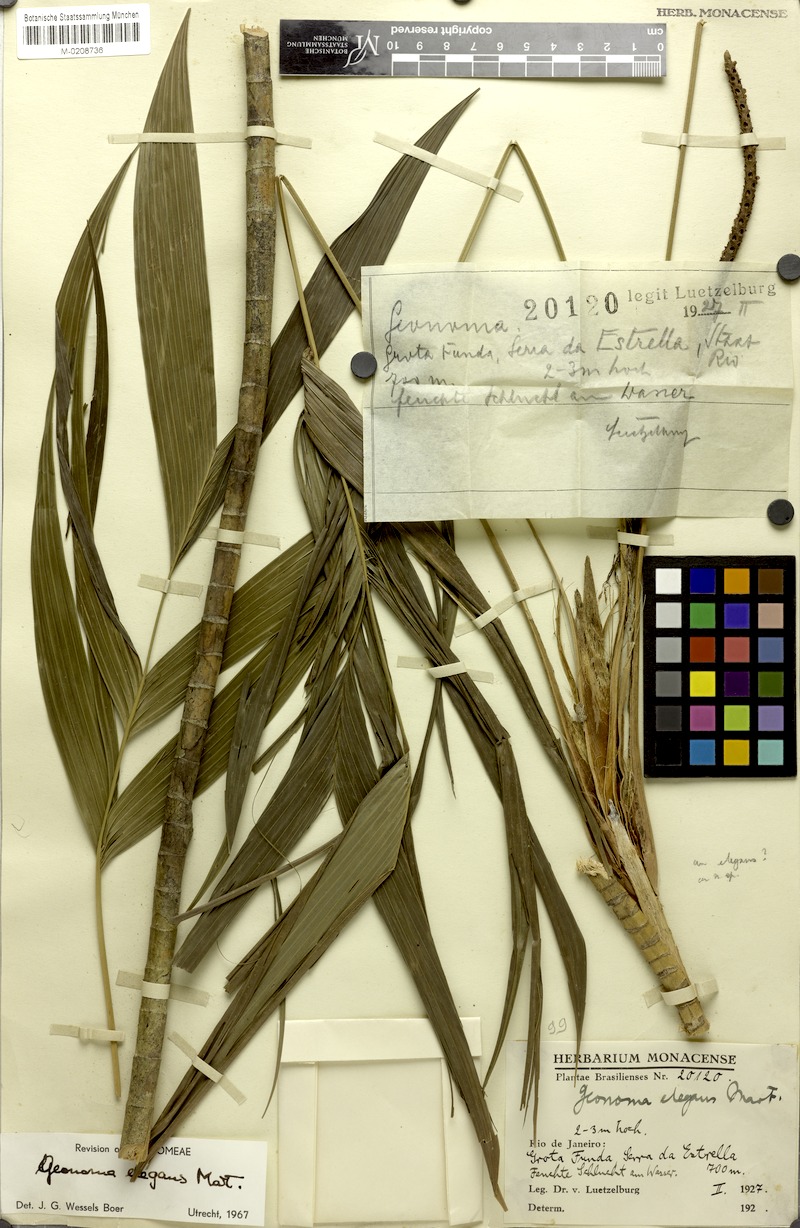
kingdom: Plantae
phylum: Tracheophyta
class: Liliopsida
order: Arecales
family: Arecaceae
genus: Geonoma
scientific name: Geonoma elegans
